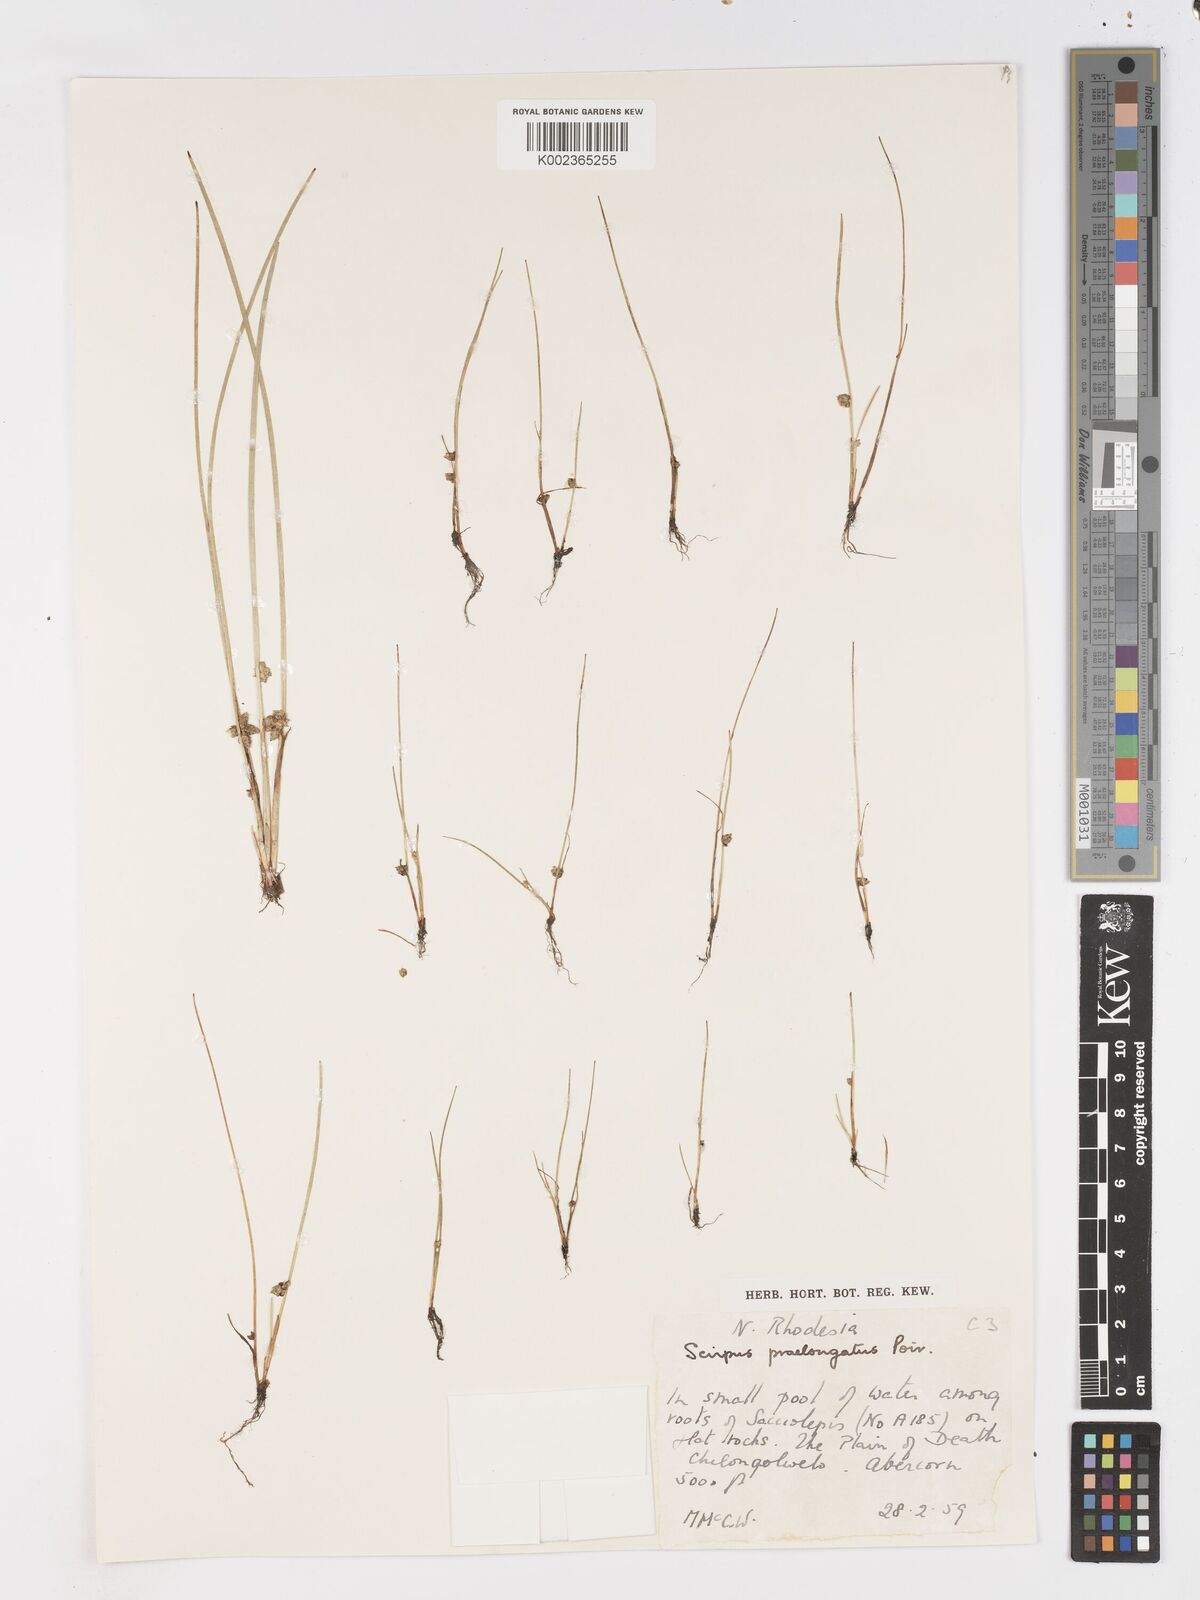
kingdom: Plantae
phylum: Tracheophyta
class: Liliopsida
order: Poales
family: Cyperaceae
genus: Schoenoplectiella
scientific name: Schoenoplectiella senegalensis
